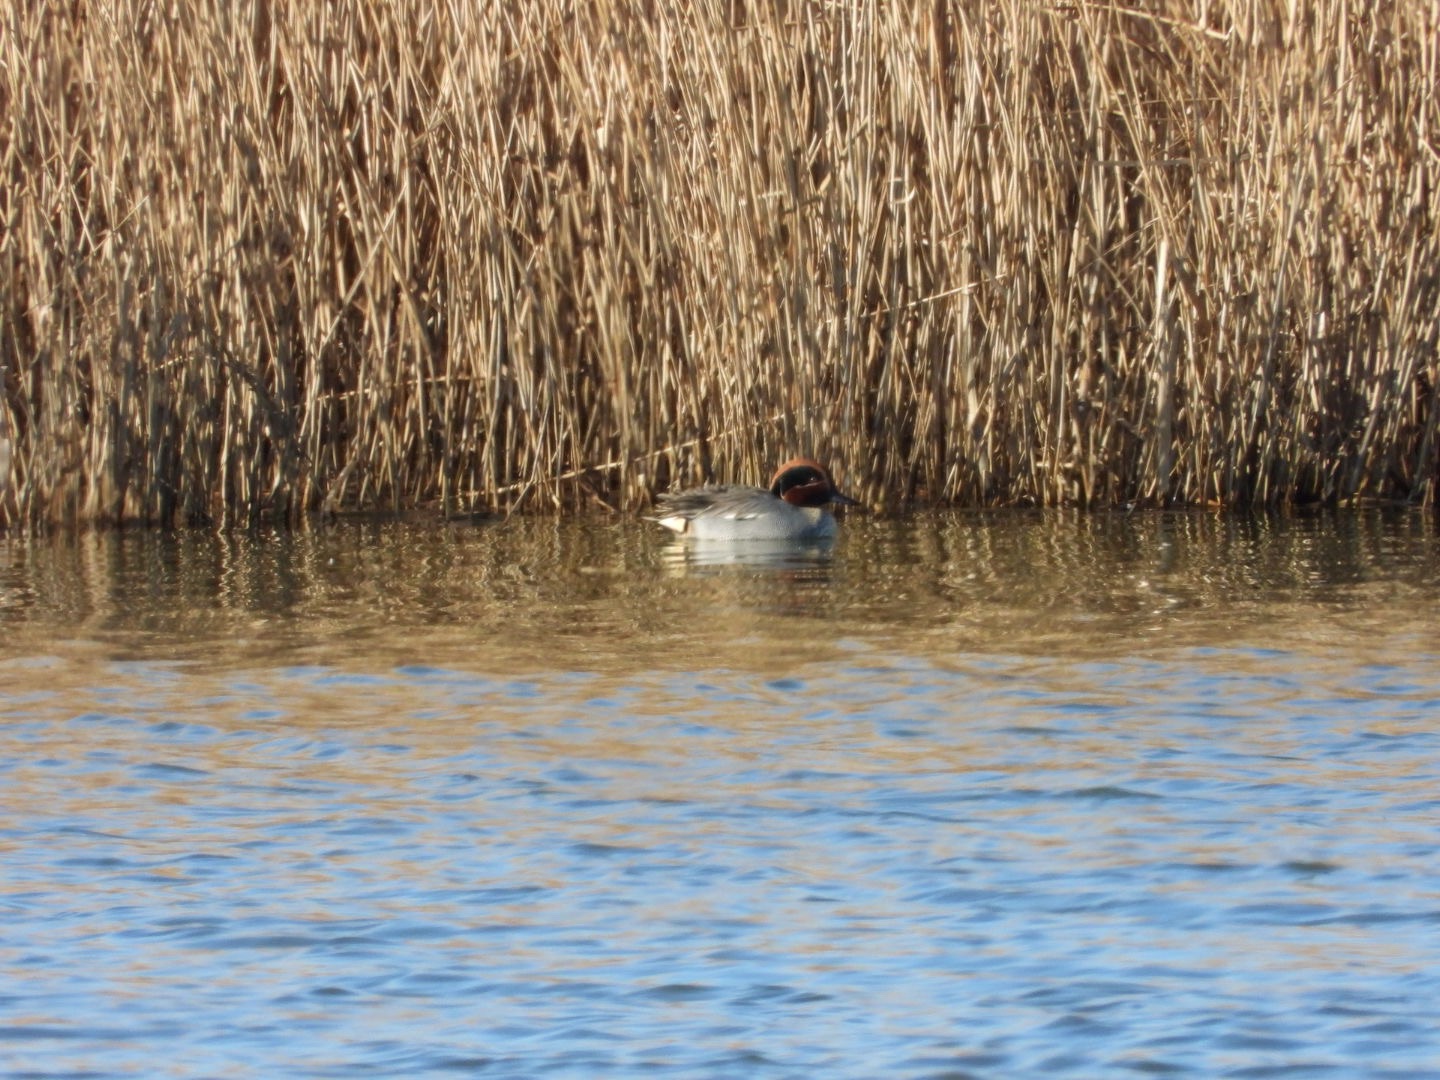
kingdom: Animalia
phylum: Chordata
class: Aves
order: Anseriformes
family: Anatidae
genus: Anas
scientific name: Anas crecca
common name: Krikand
